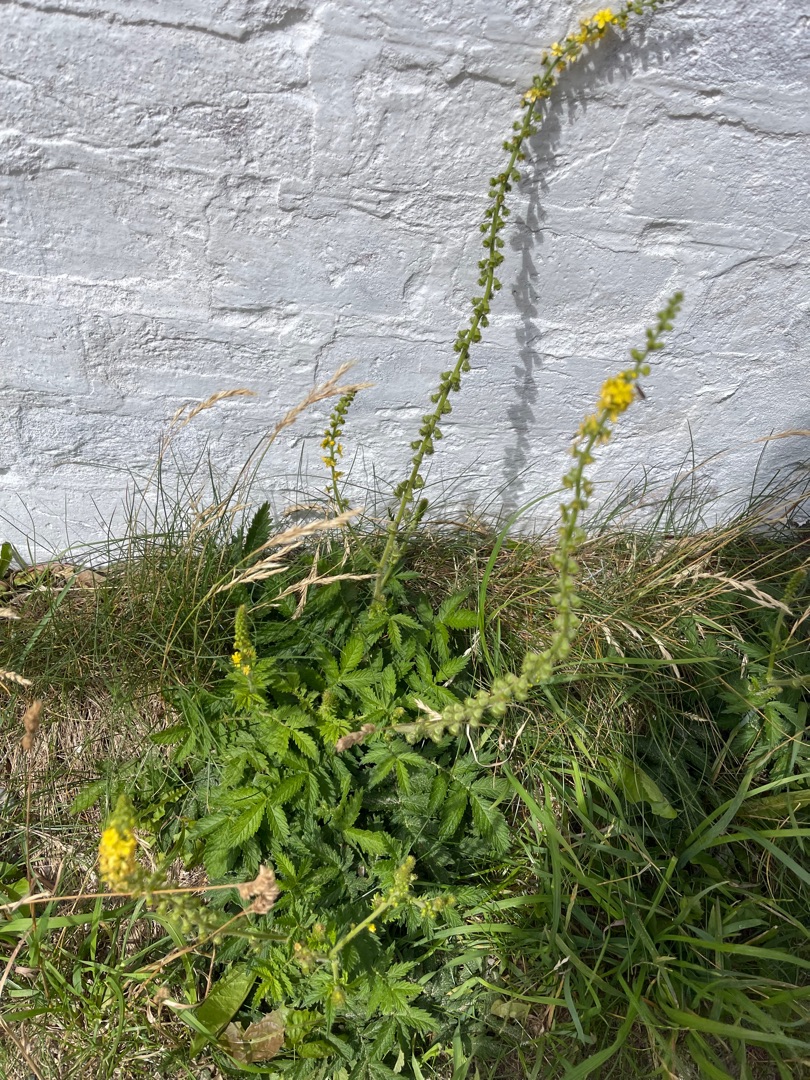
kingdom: Plantae
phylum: Tracheophyta
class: Magnoliopsida
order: Rosales
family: Rosaceae
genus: Agrimonia
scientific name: Agrimonia eupatoria
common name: Almindelig agermåne
